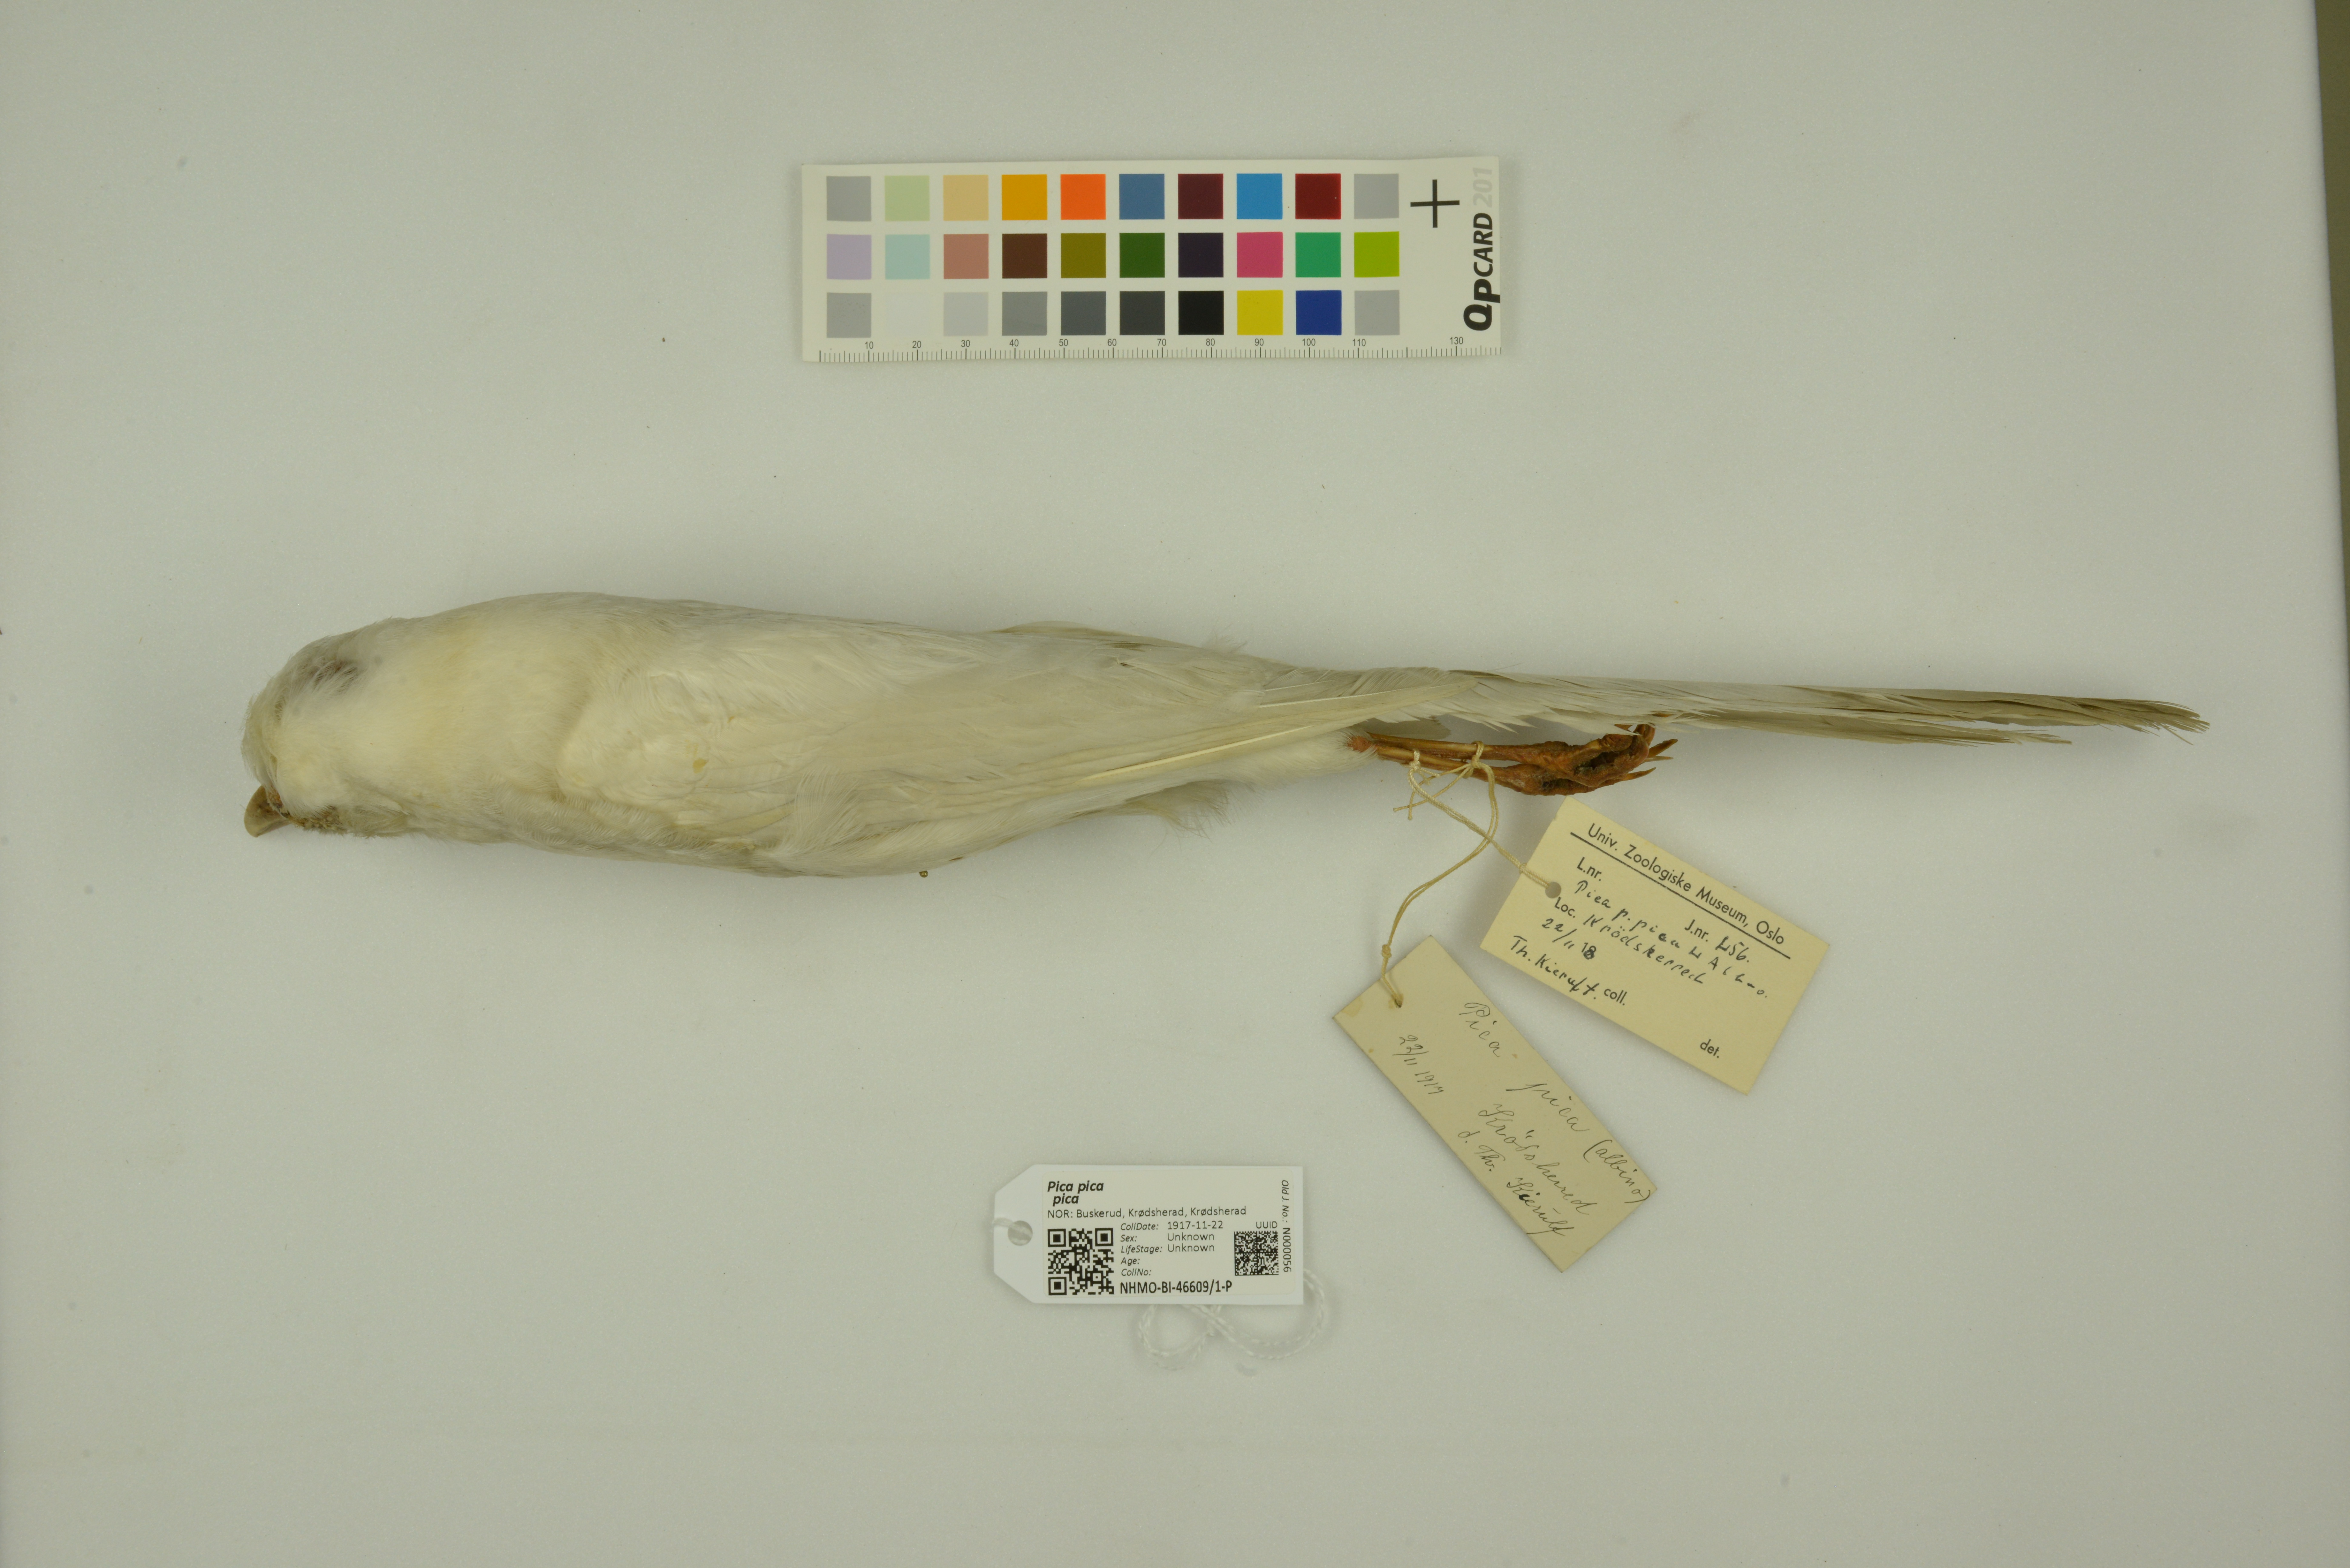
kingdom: Animalia
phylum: Chordata
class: Aves
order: Passeriformes
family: Corvidae
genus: Pica
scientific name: Pica pica
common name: Eurasian magpie
